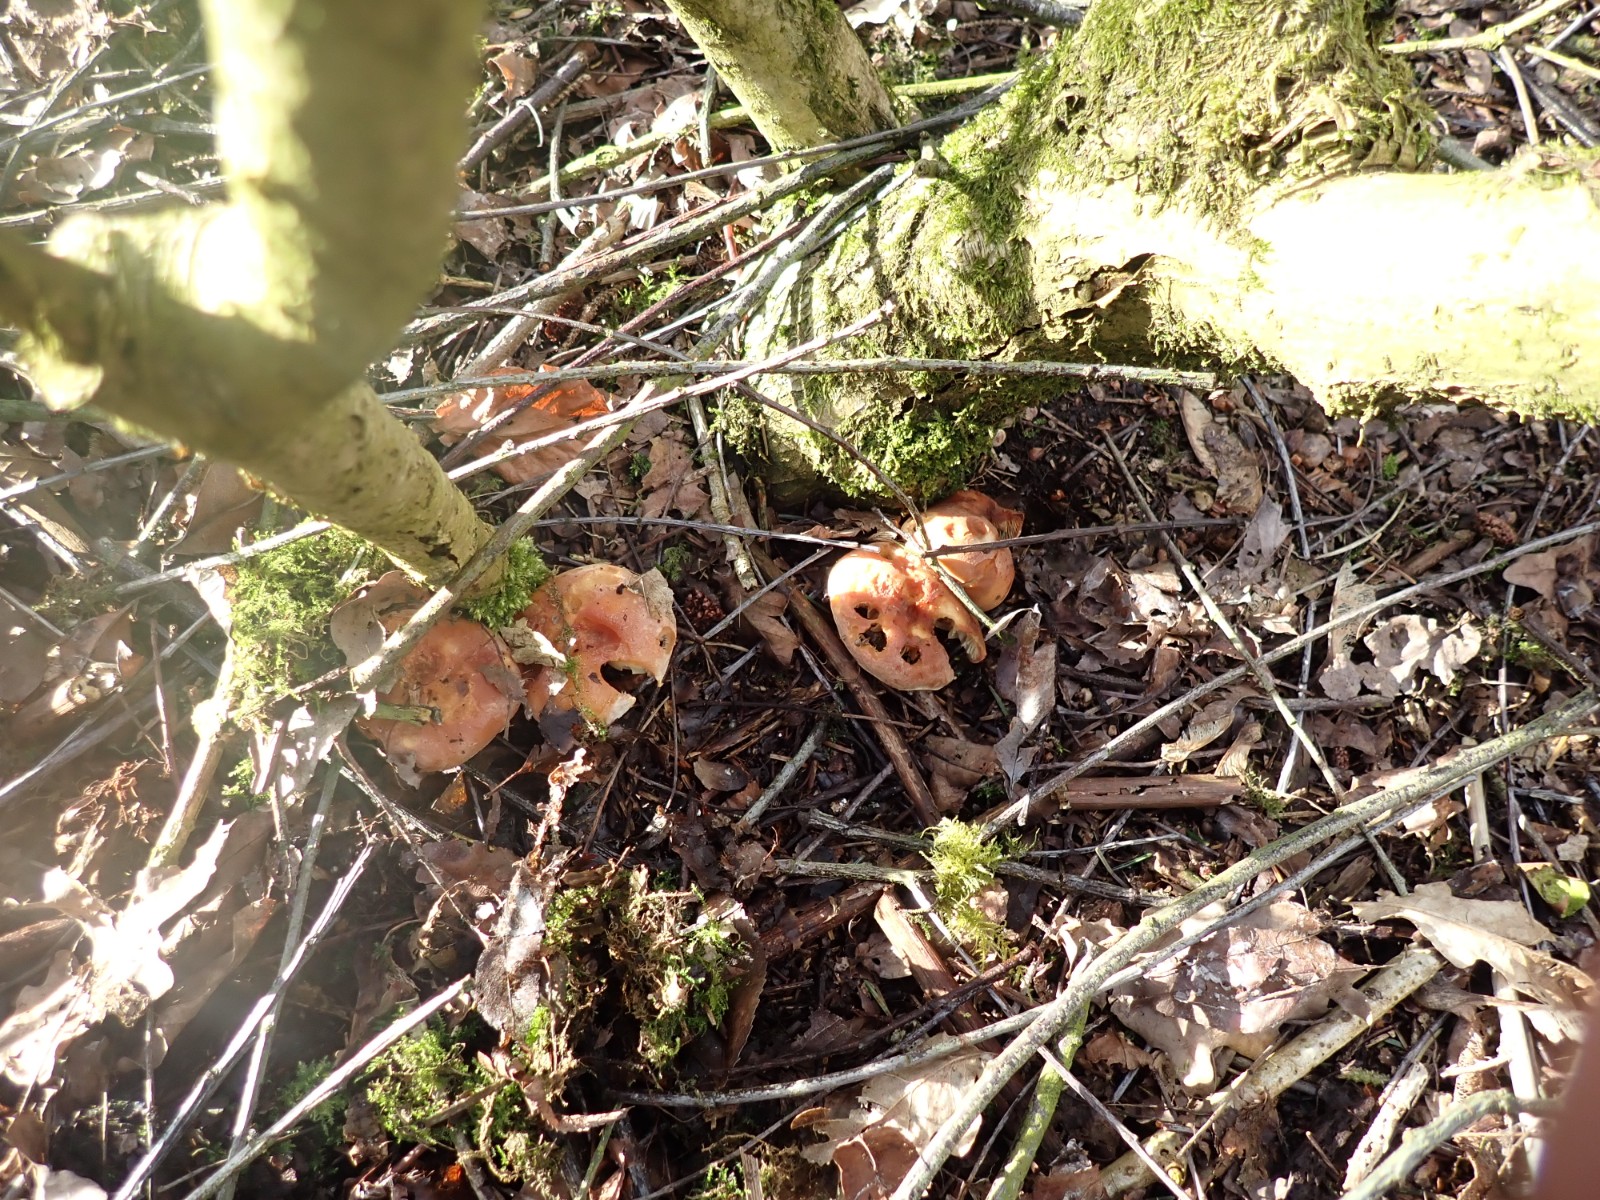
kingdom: Fungi
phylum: Basidiomycota
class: Agaricomycetes
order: Agaricales
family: Strophariaceae
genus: Hypholoma
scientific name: Hypholoma lateritium
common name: teglrød svovlhat
